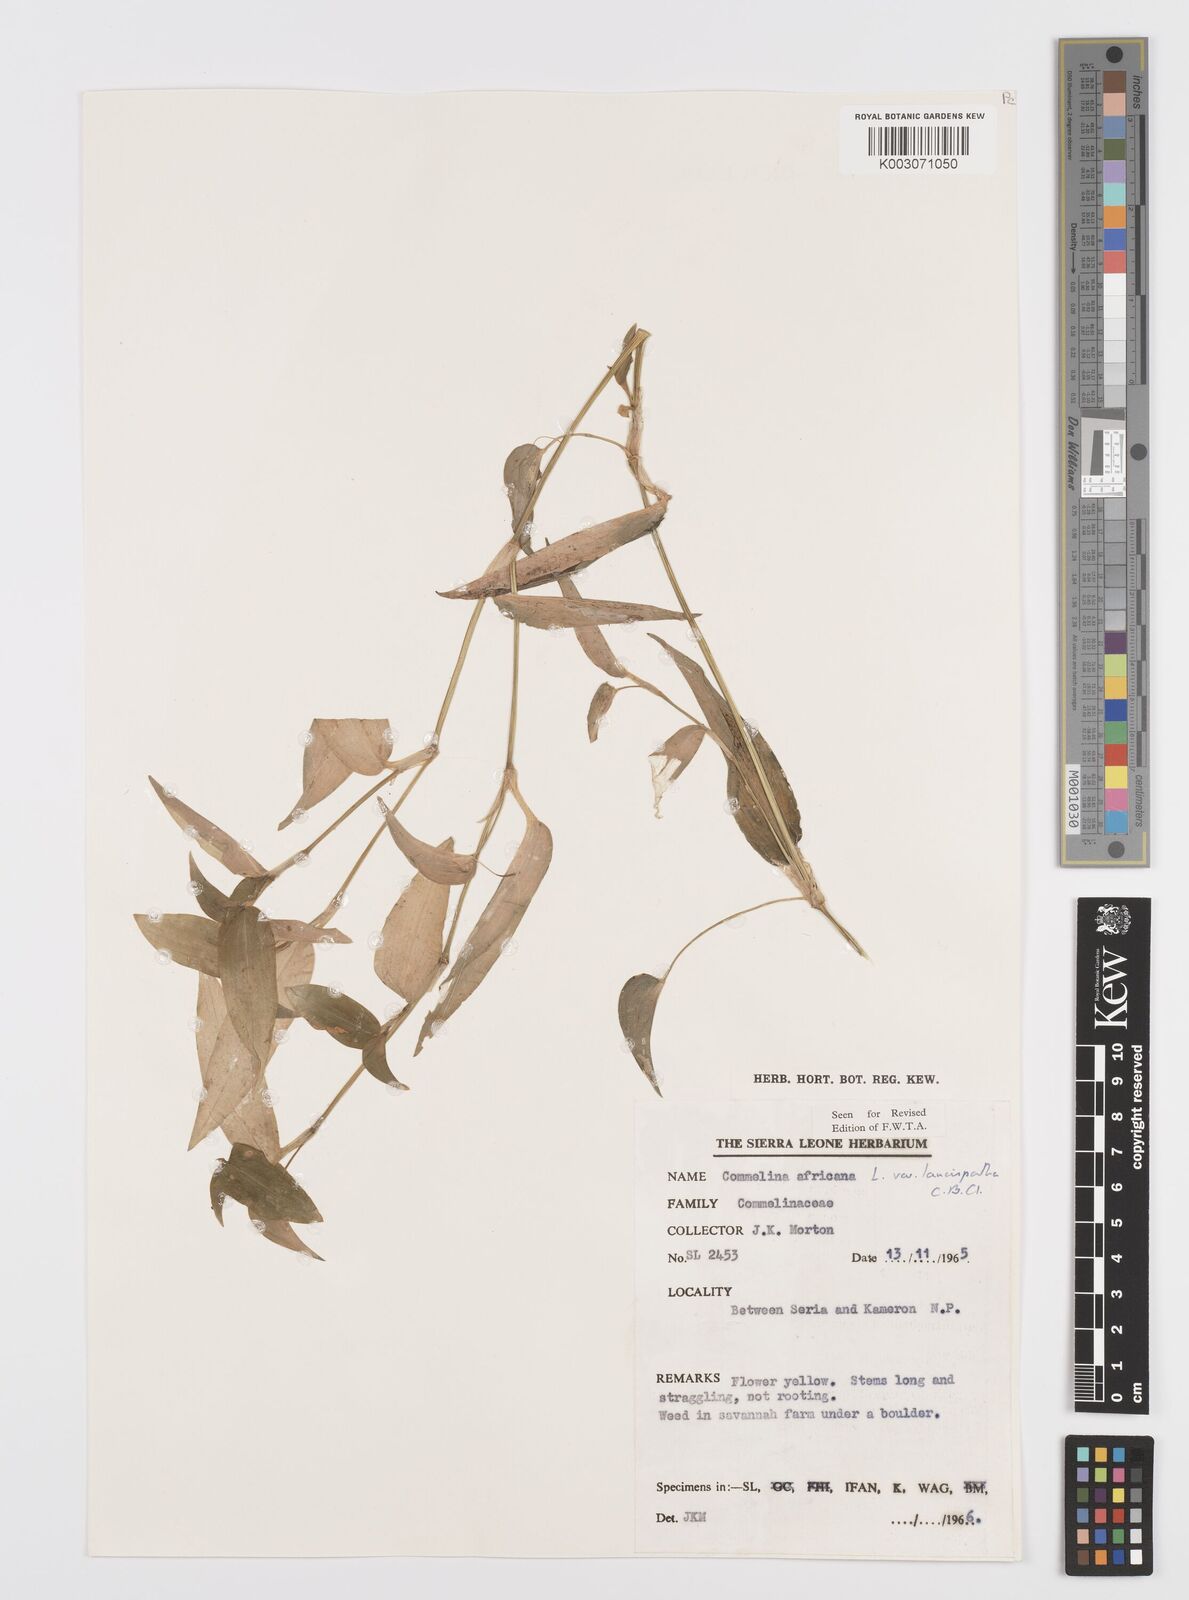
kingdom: Plantae
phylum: Tracheophyta
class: Liliopsida
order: Commelinales
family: Commelinaceae
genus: Commelina
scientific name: Commelina africana
